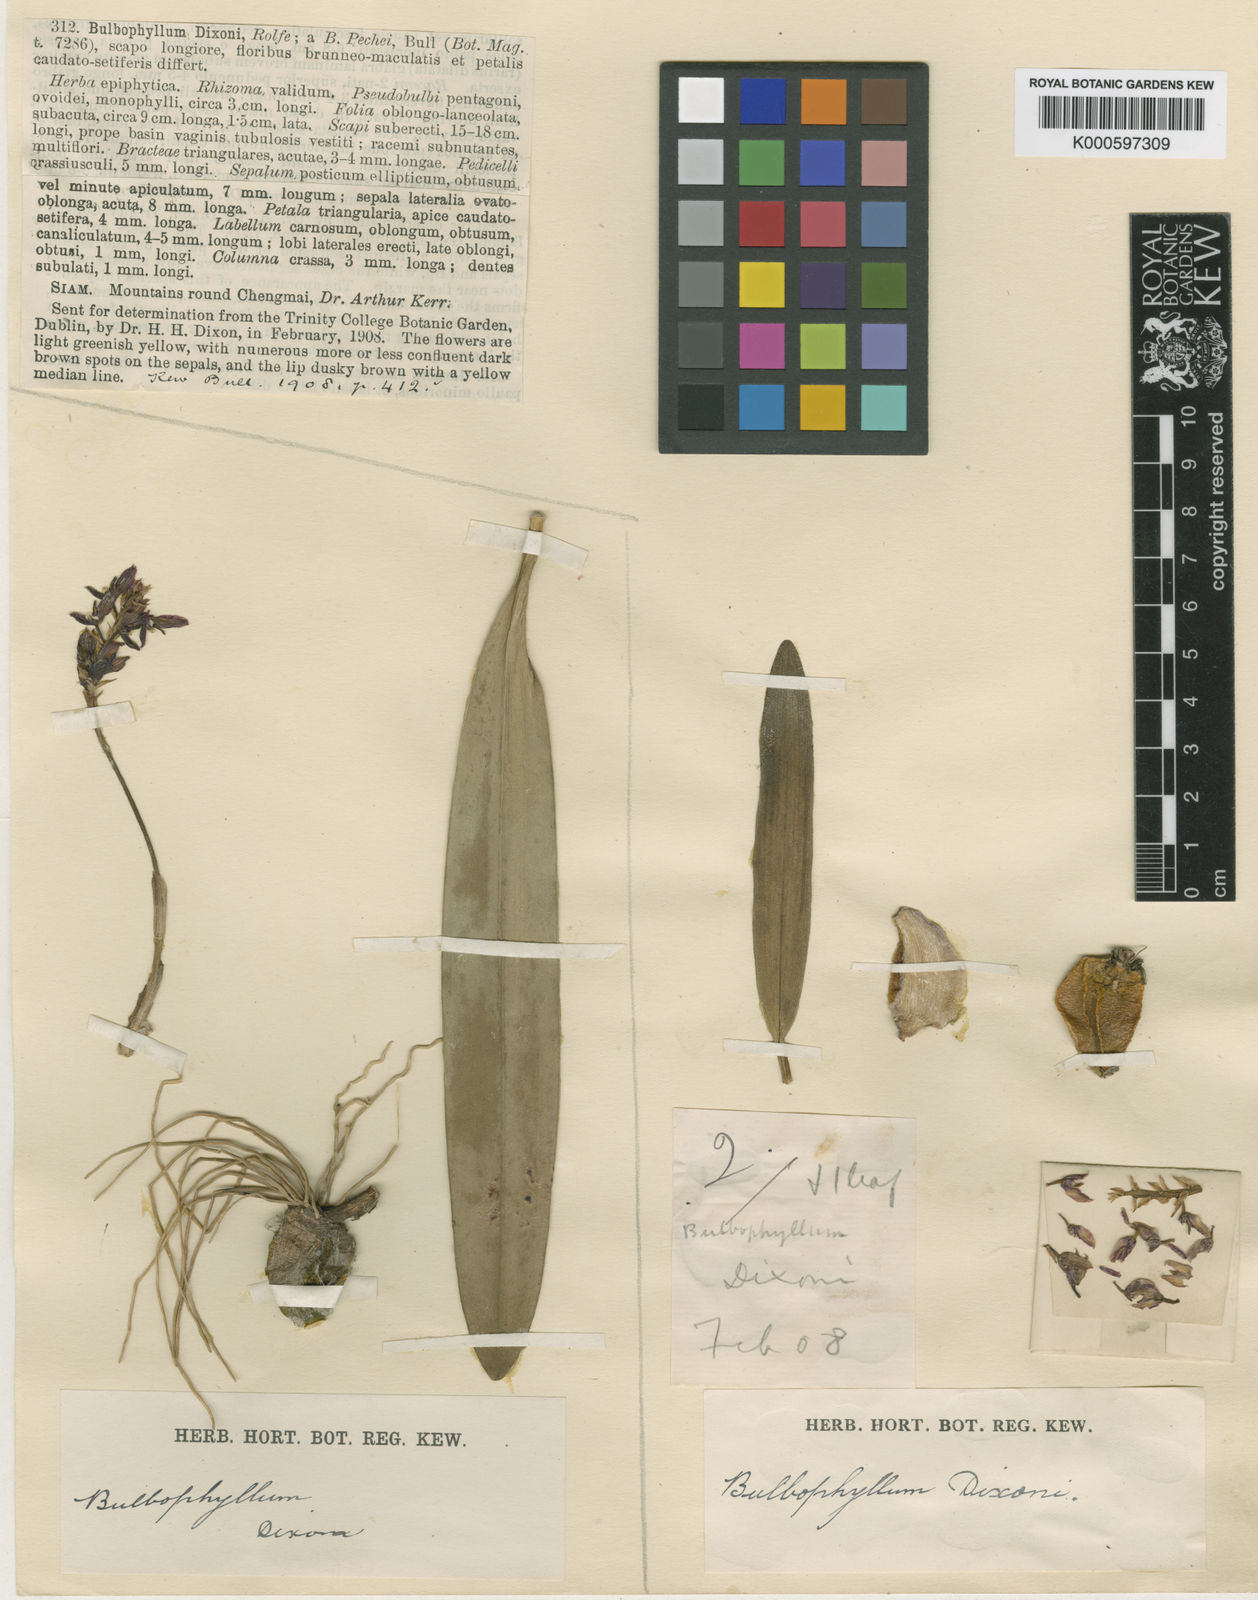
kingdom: Plantae
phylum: Tracheophyta
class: Liliopsida
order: Asparagales
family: Orchidaceae
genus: Bulbophyllum
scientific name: Bulbophyllum morphologorum
